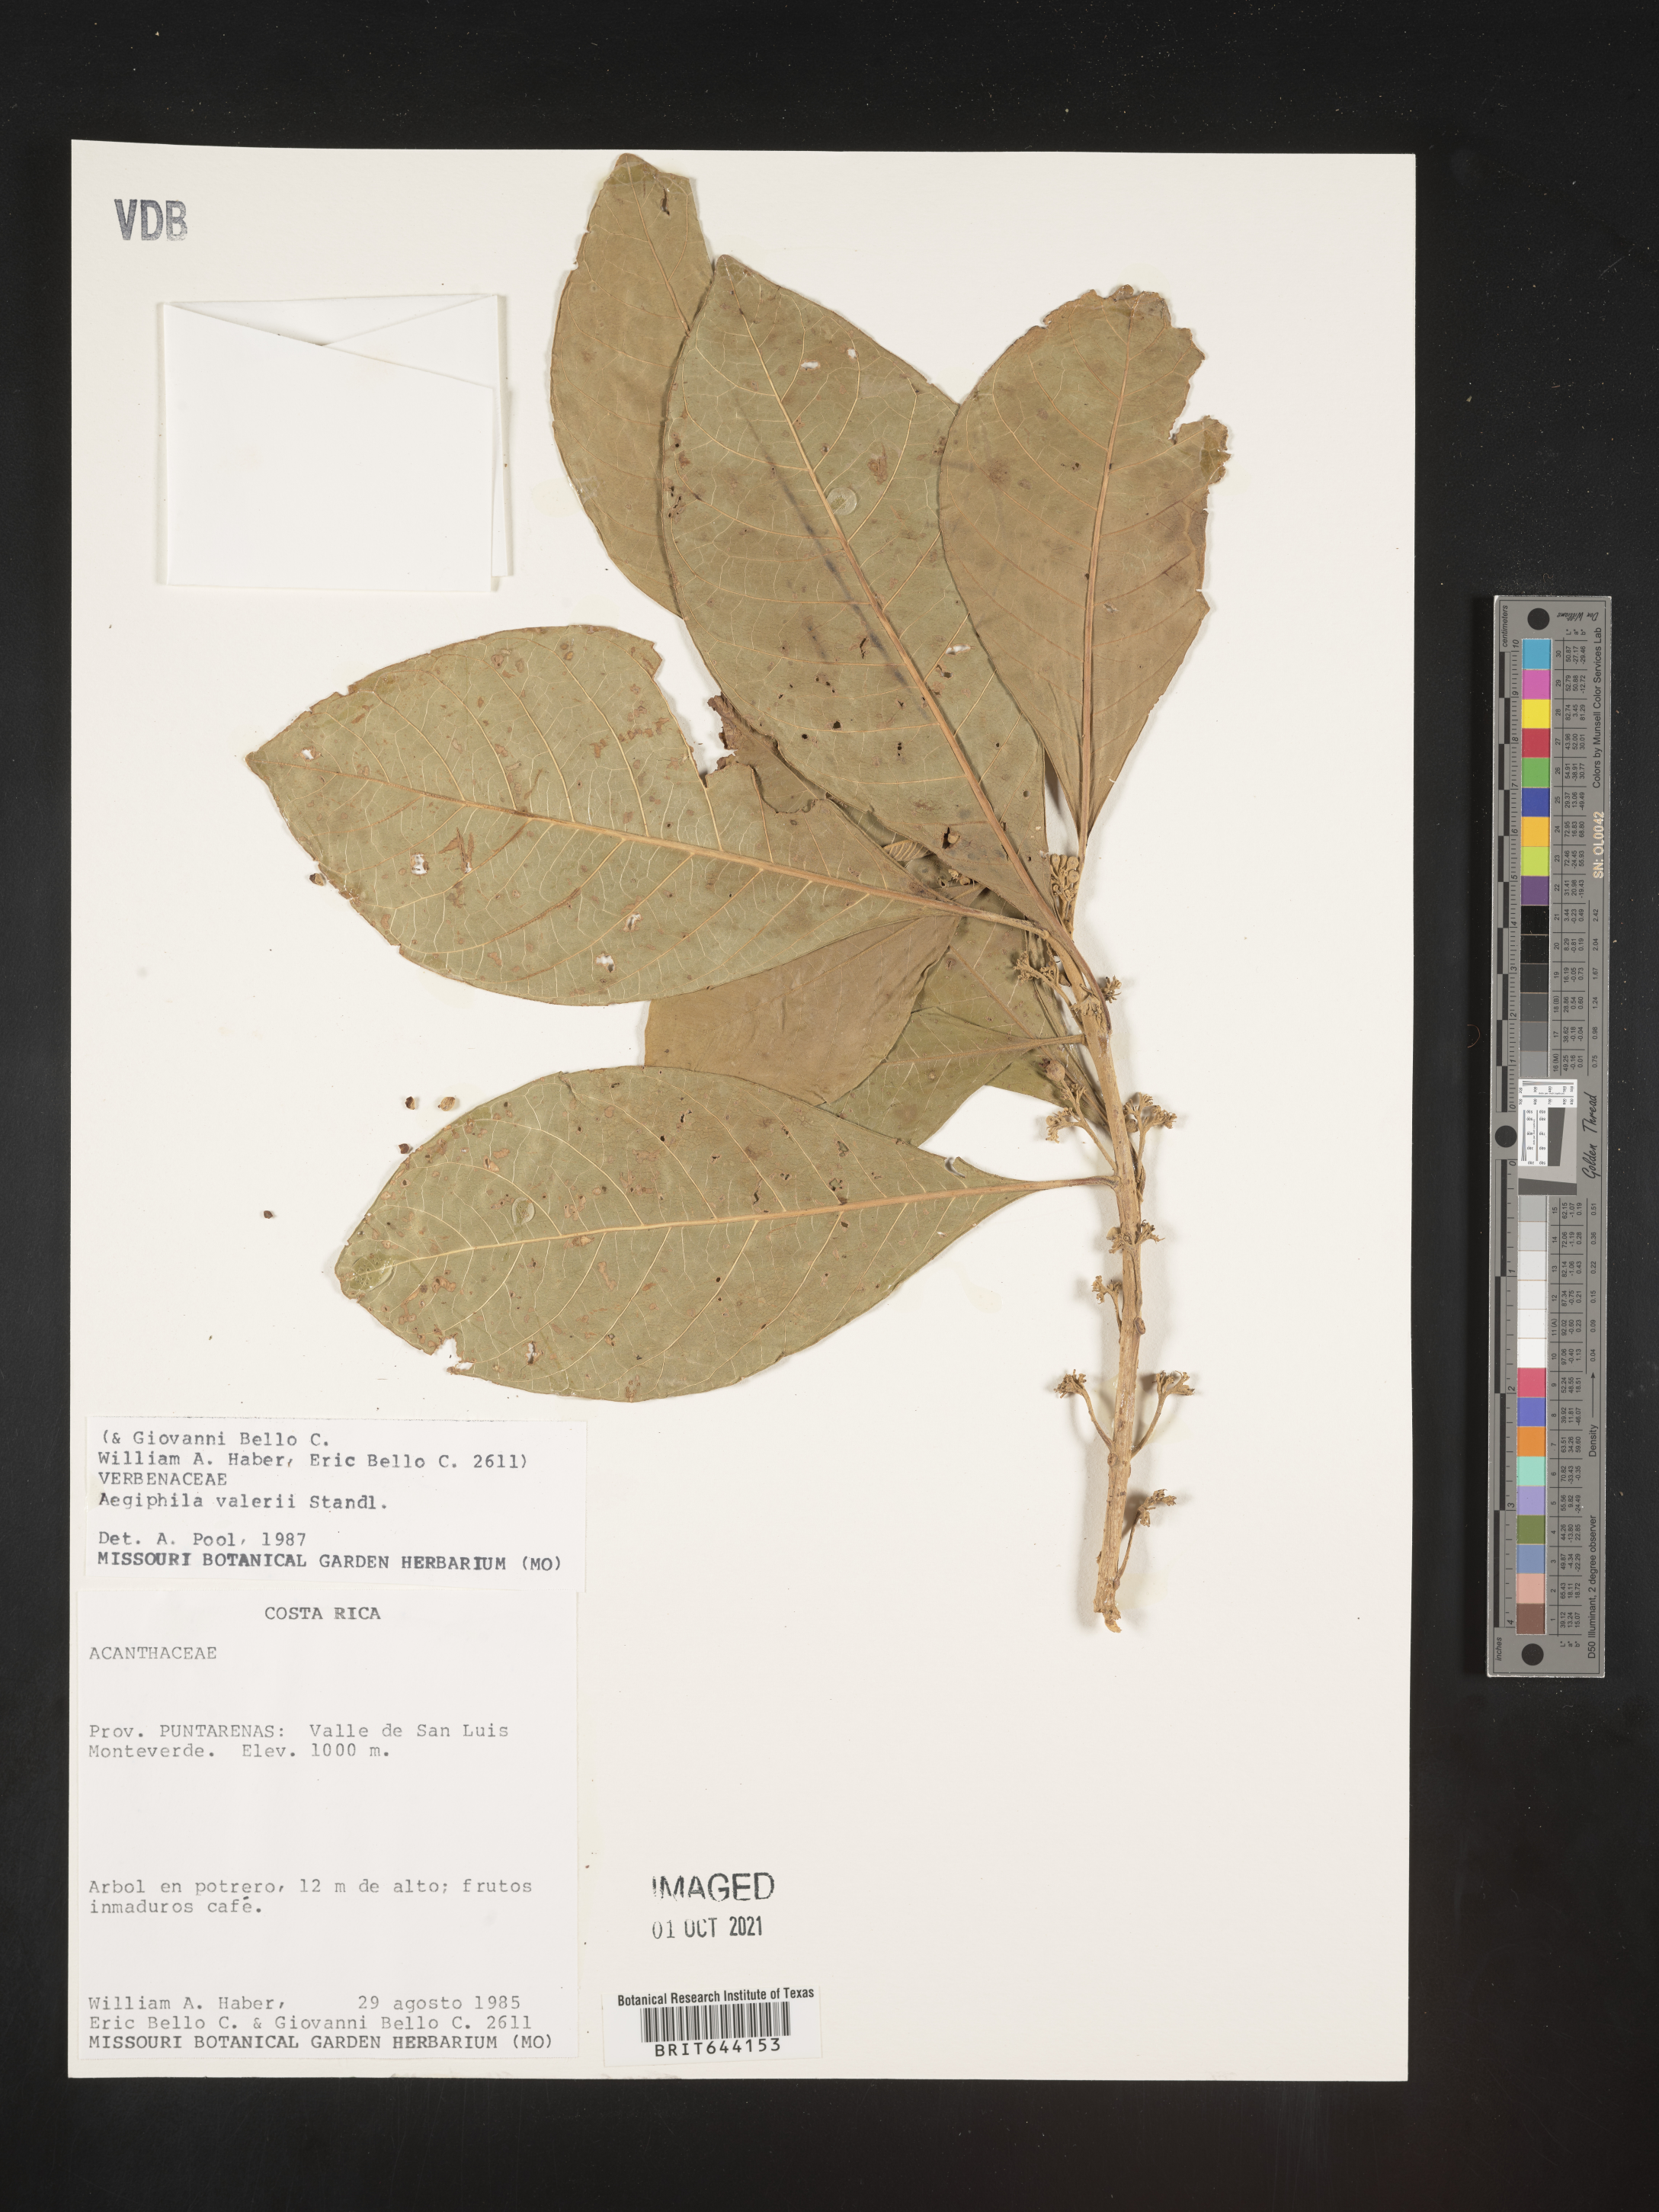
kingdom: Plantae
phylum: Tracheophyta
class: Magnoliopsida
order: Lamiales
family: Lamiaceae
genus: Aegiphila
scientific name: Aegiphila
